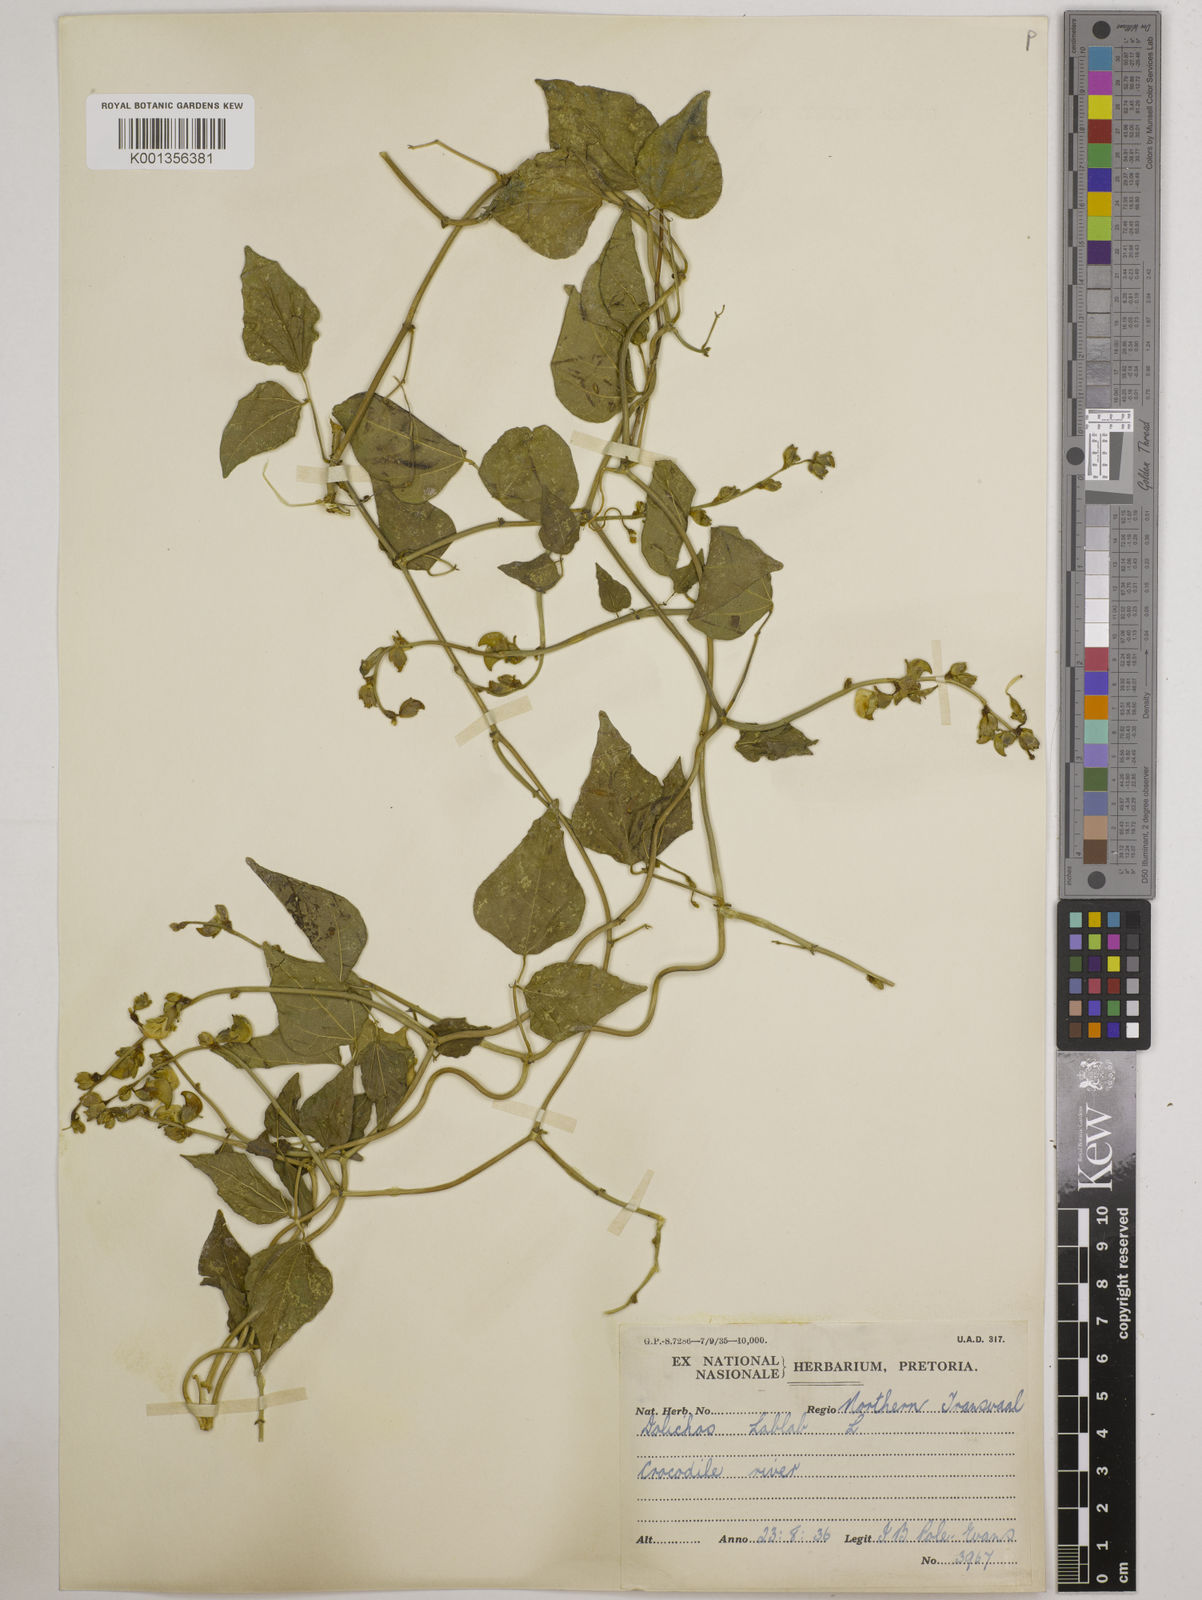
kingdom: Plantae
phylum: Tracheophyta
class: Magnoliopsida
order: Fabales
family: Fabaceae
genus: Lablab
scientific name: Lablab purpureus
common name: Lablab-bean
